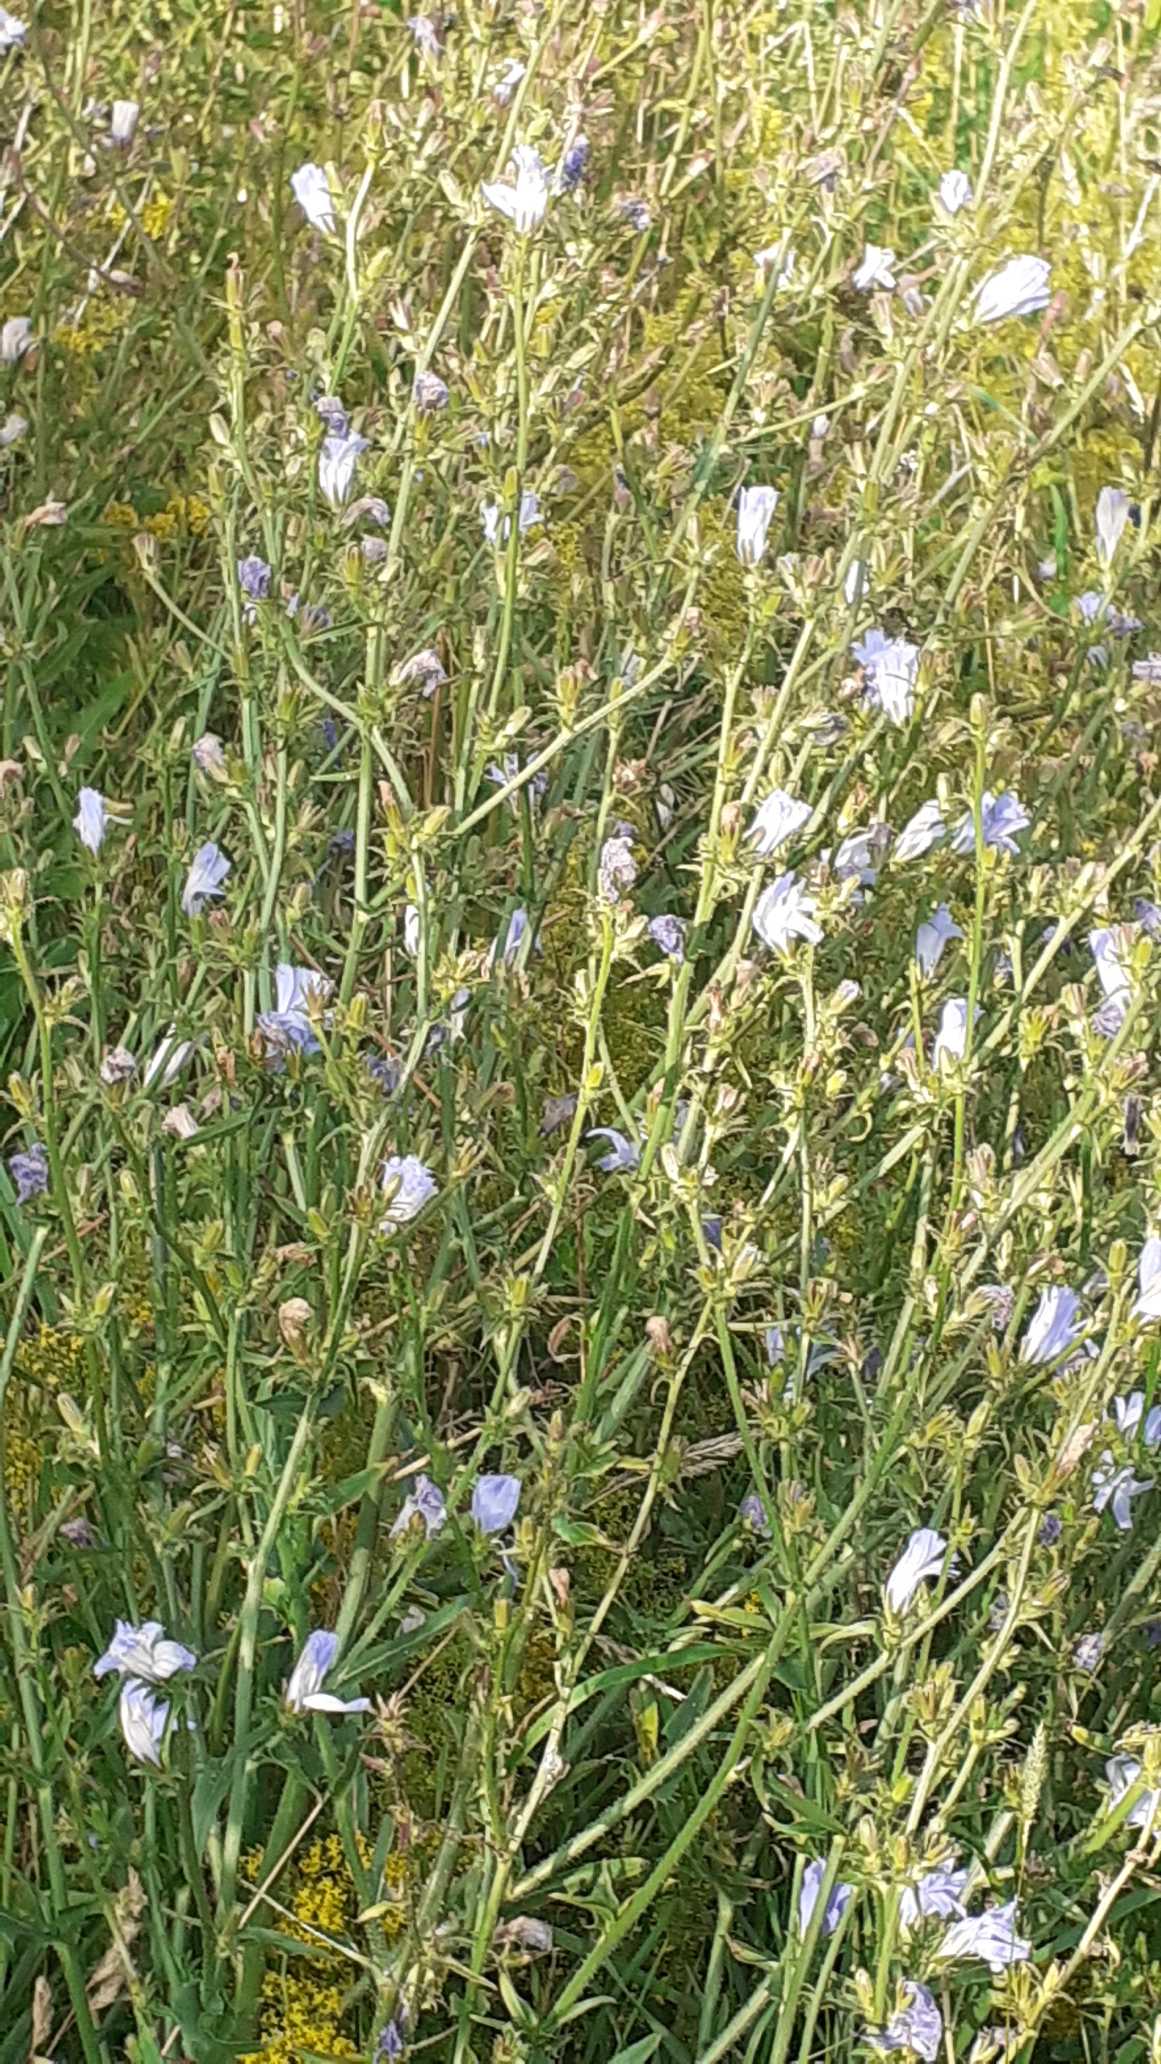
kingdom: Plantae
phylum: Tracheophyta
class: Magnoliopsida
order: Asterales
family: Asteraceae
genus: Cichorium
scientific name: Cichorium intybus
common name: Cikorie
